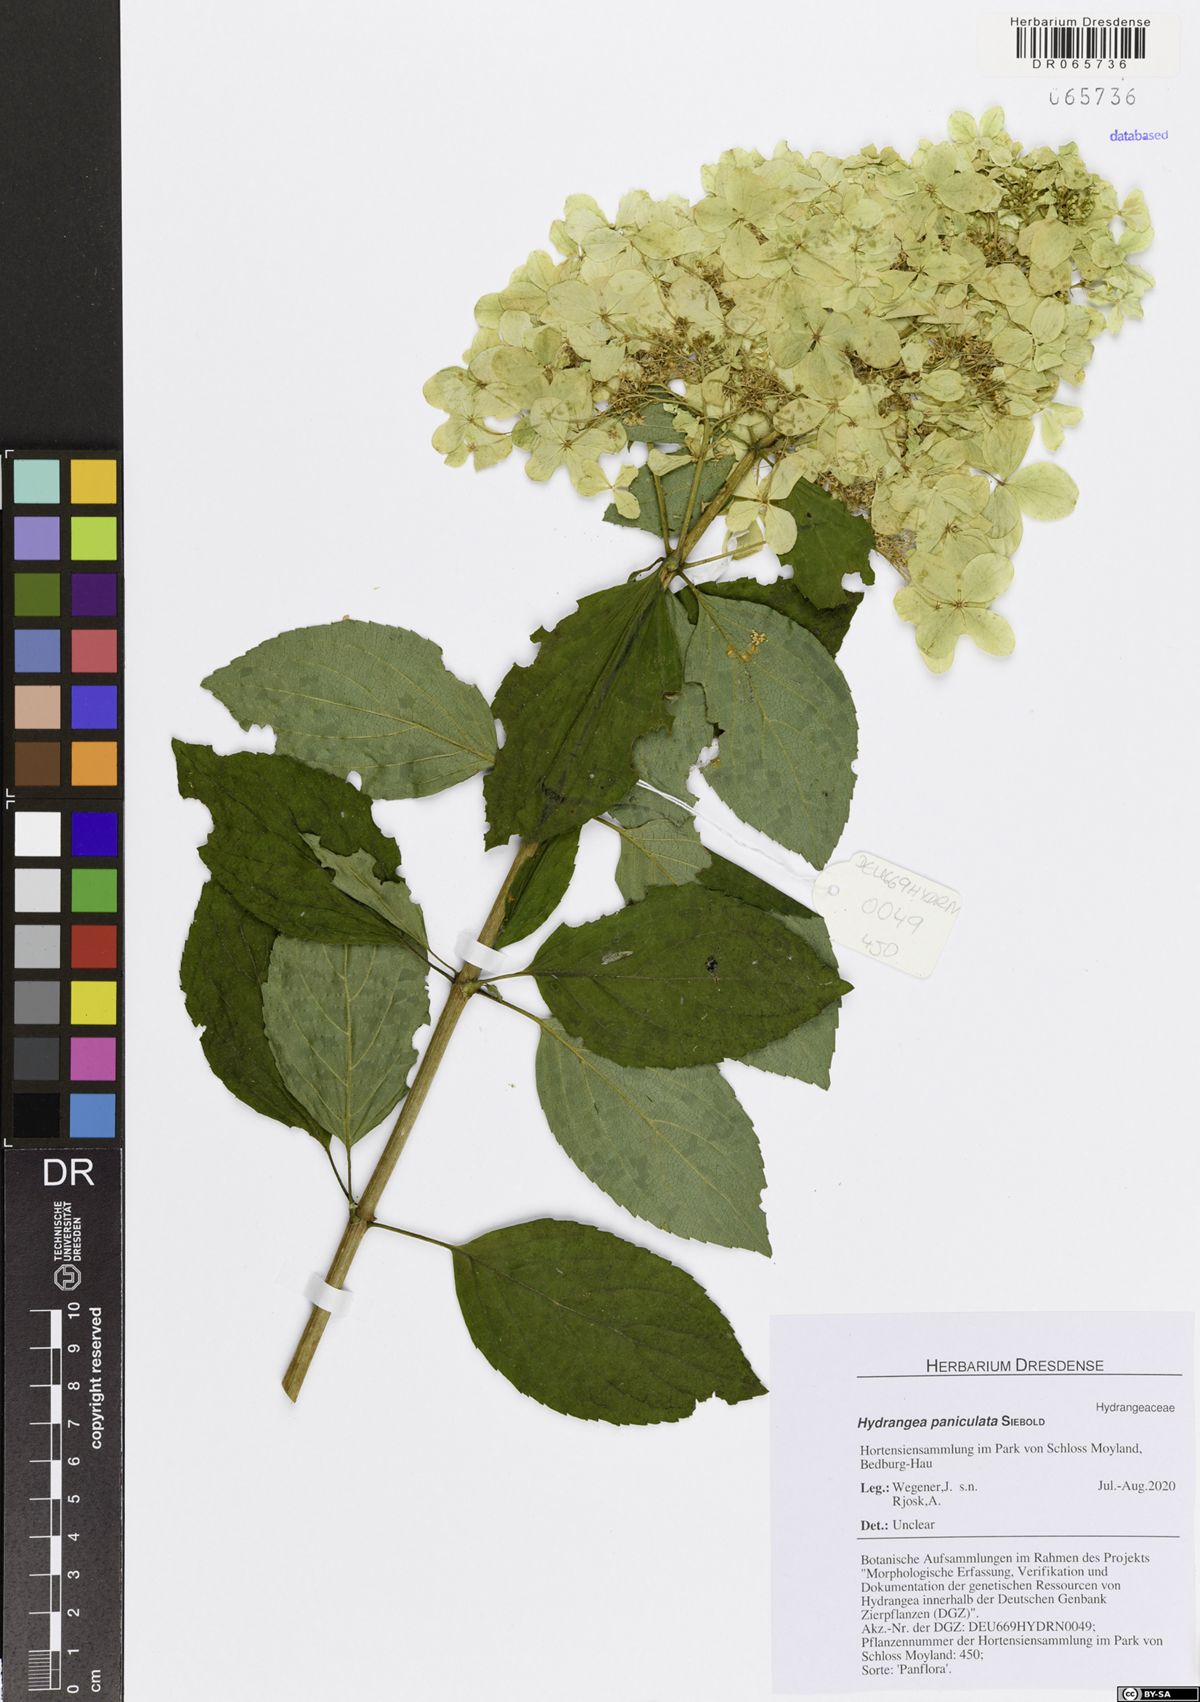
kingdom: Plantae
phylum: Tracheophyta
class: Magnoliopsida
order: Cornales
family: Hydrangeaceae
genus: Hydrangea
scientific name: Hydrangea paniculata
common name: Panicled hydrangea
